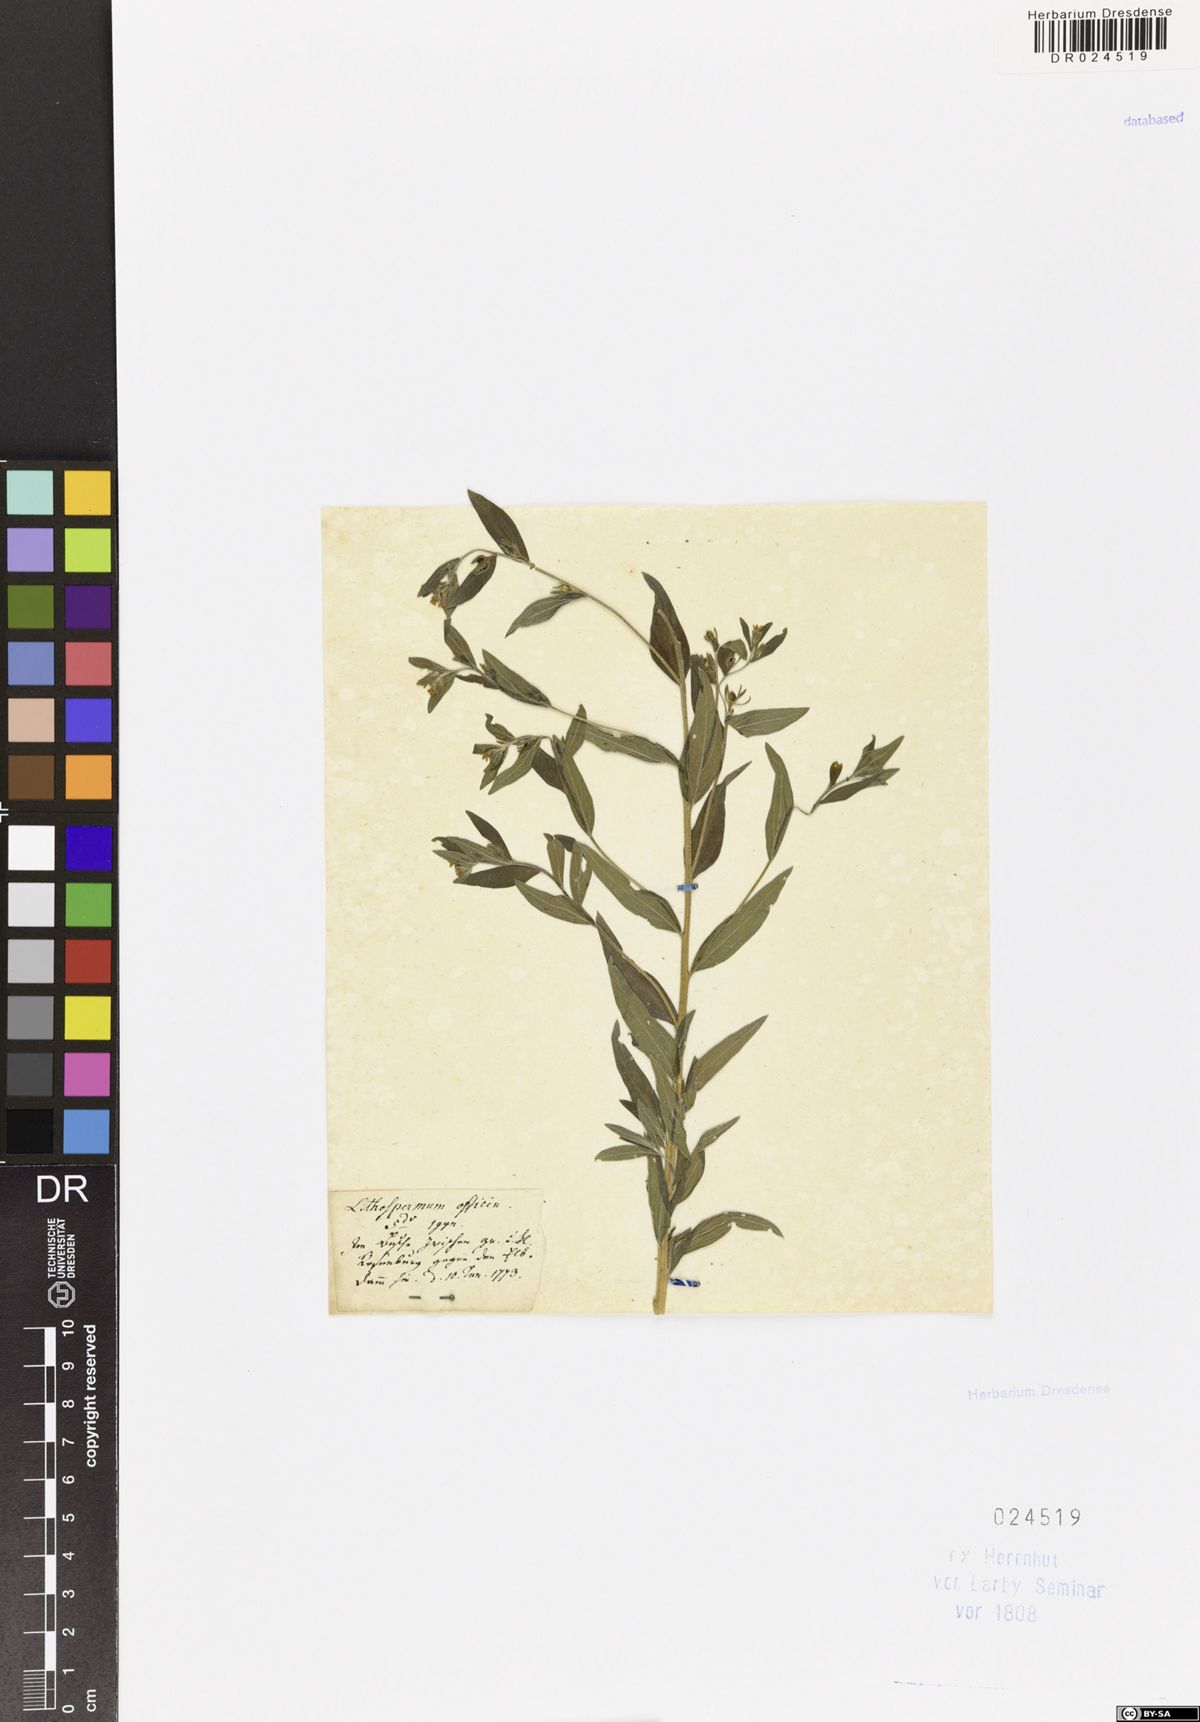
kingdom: Plantae
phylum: Tracheophyta
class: Magnoliopsida
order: Boraginales
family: Boraginaceae
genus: Lithospermum
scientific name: Lithospermum officinale
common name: Common gromwell
